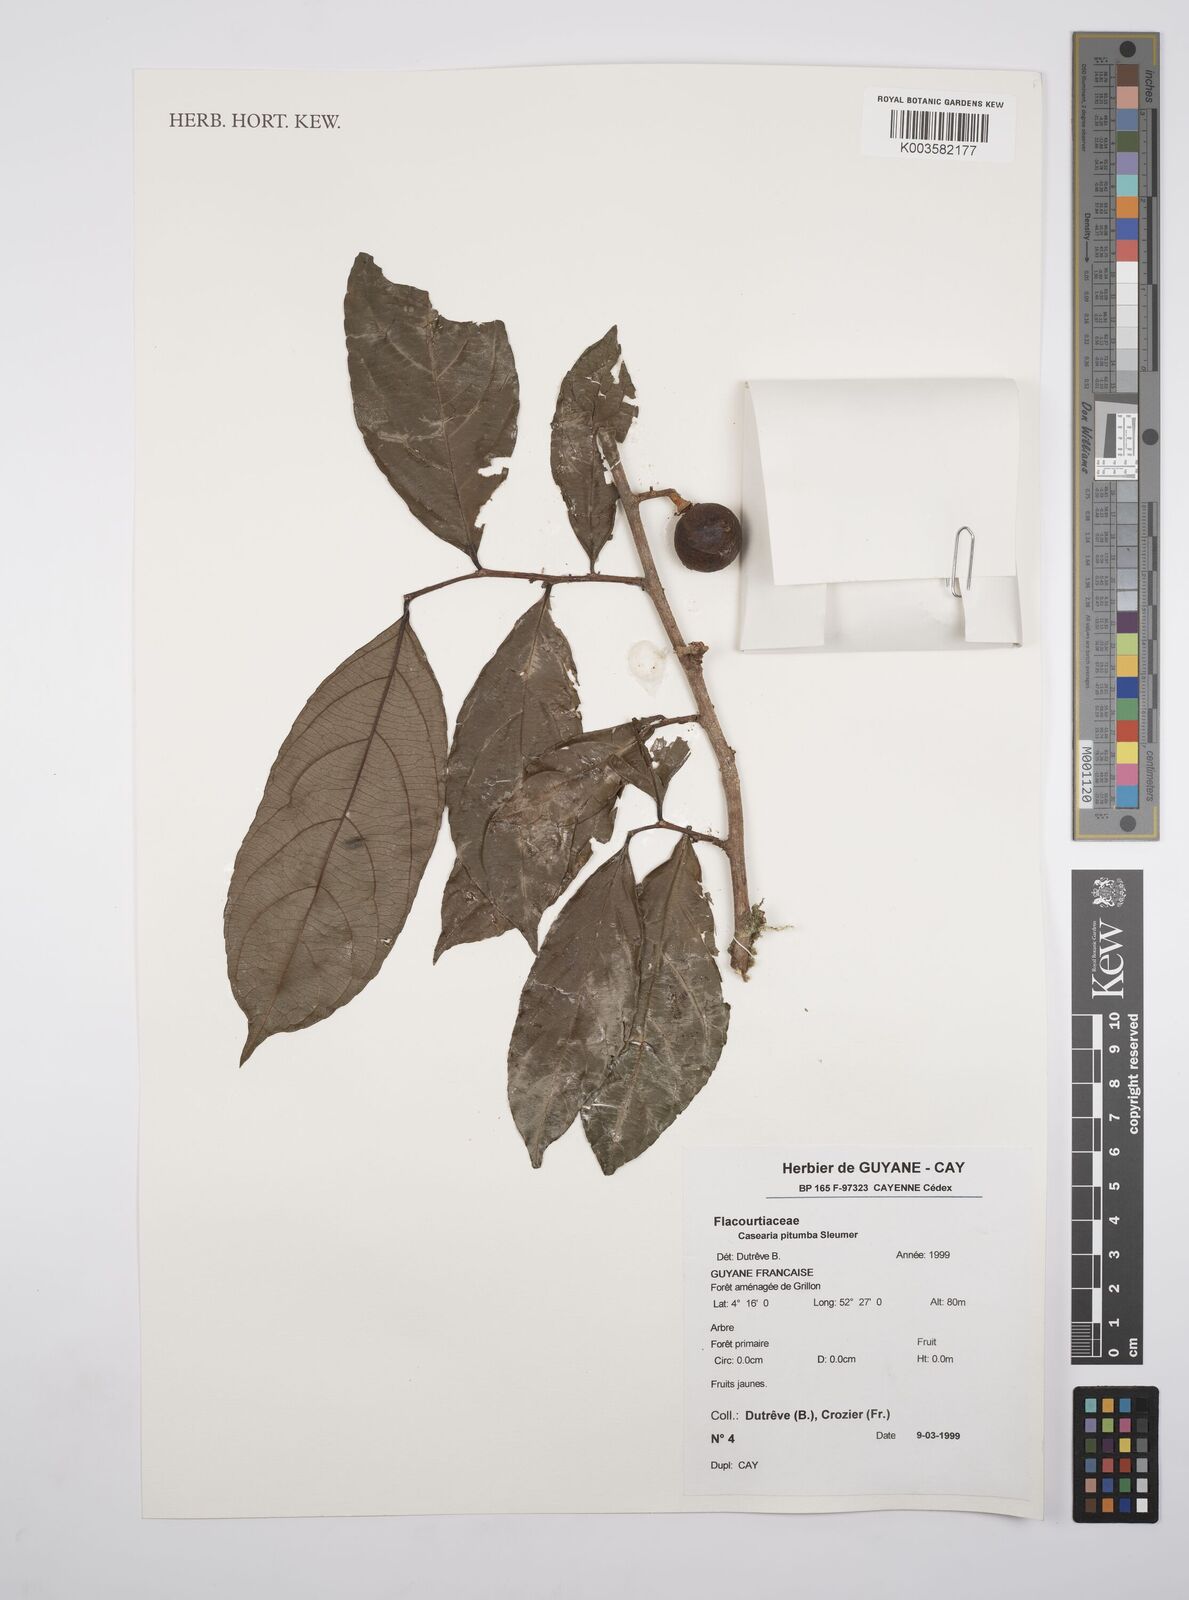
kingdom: Plantae
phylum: Tracheophyta
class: Magnoliopsida
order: Malpighiales
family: Salicaceae
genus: Casearia
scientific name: Casearia pitumba
